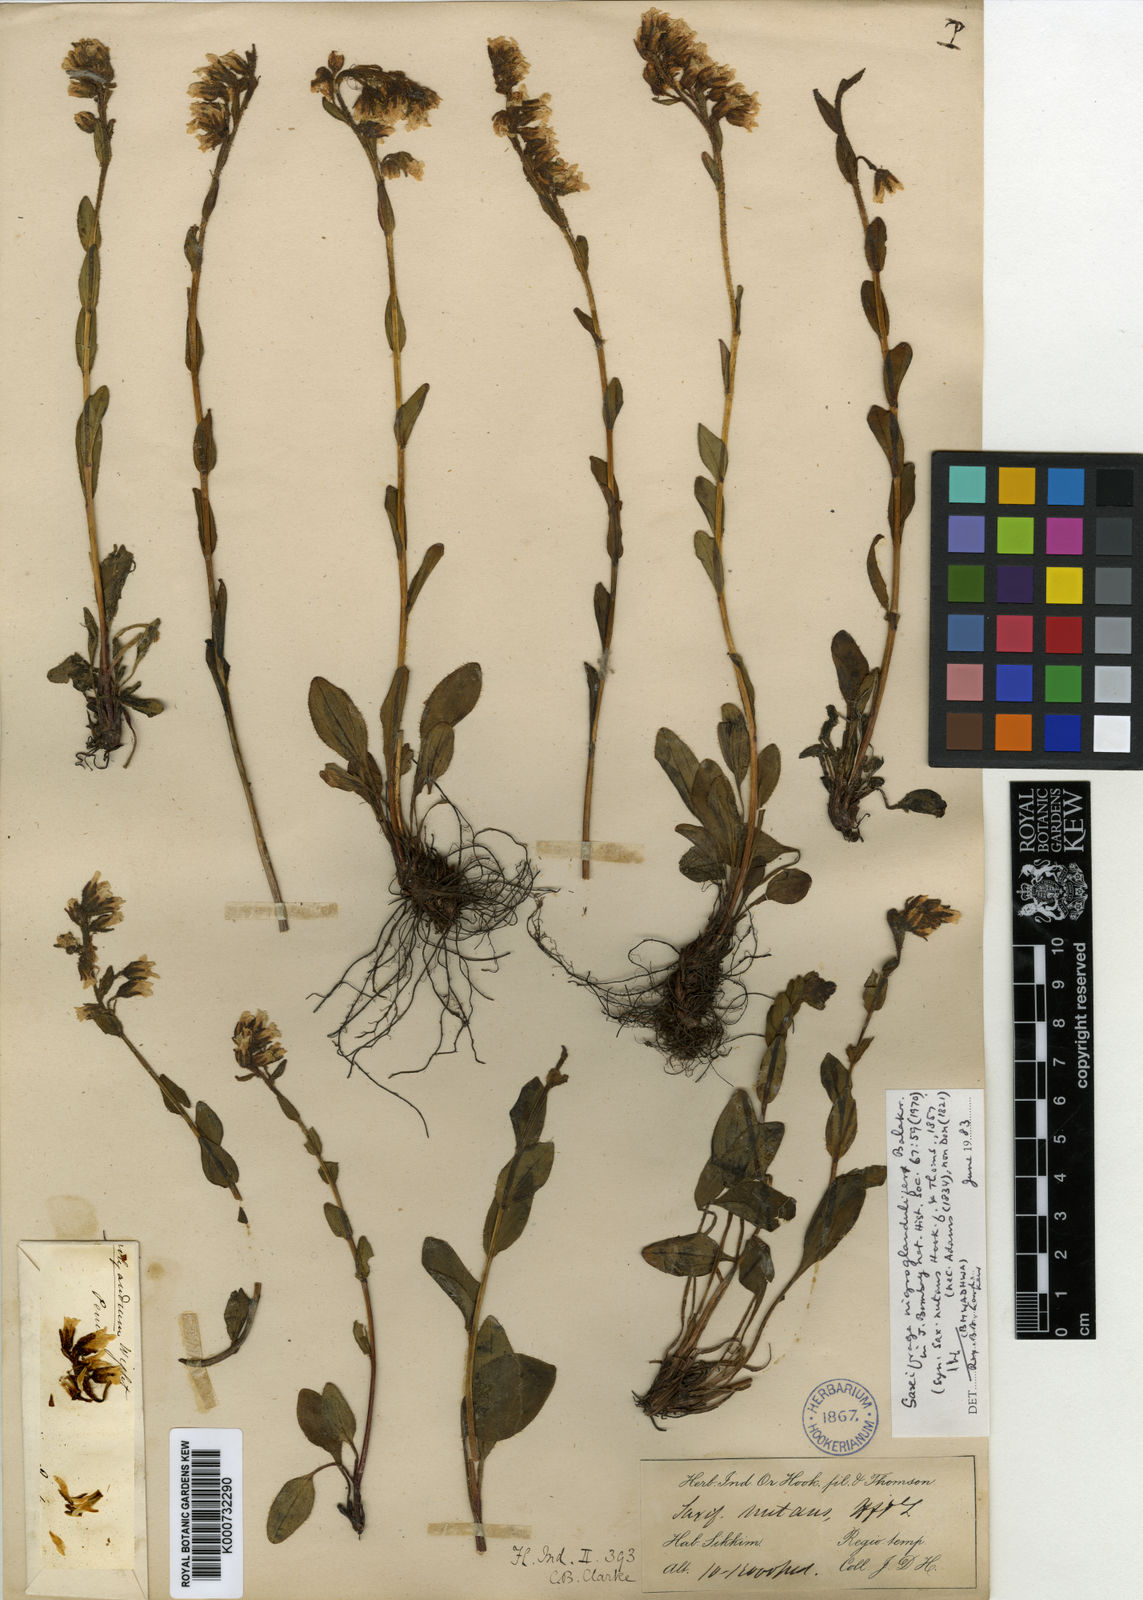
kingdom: Plantae
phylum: Tracheophyta
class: Magnoliopsida
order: Saxifragales
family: Saxifragaceae
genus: Saxifraga
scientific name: Saxifraga hirculus
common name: Yellow marsh saxifrage
